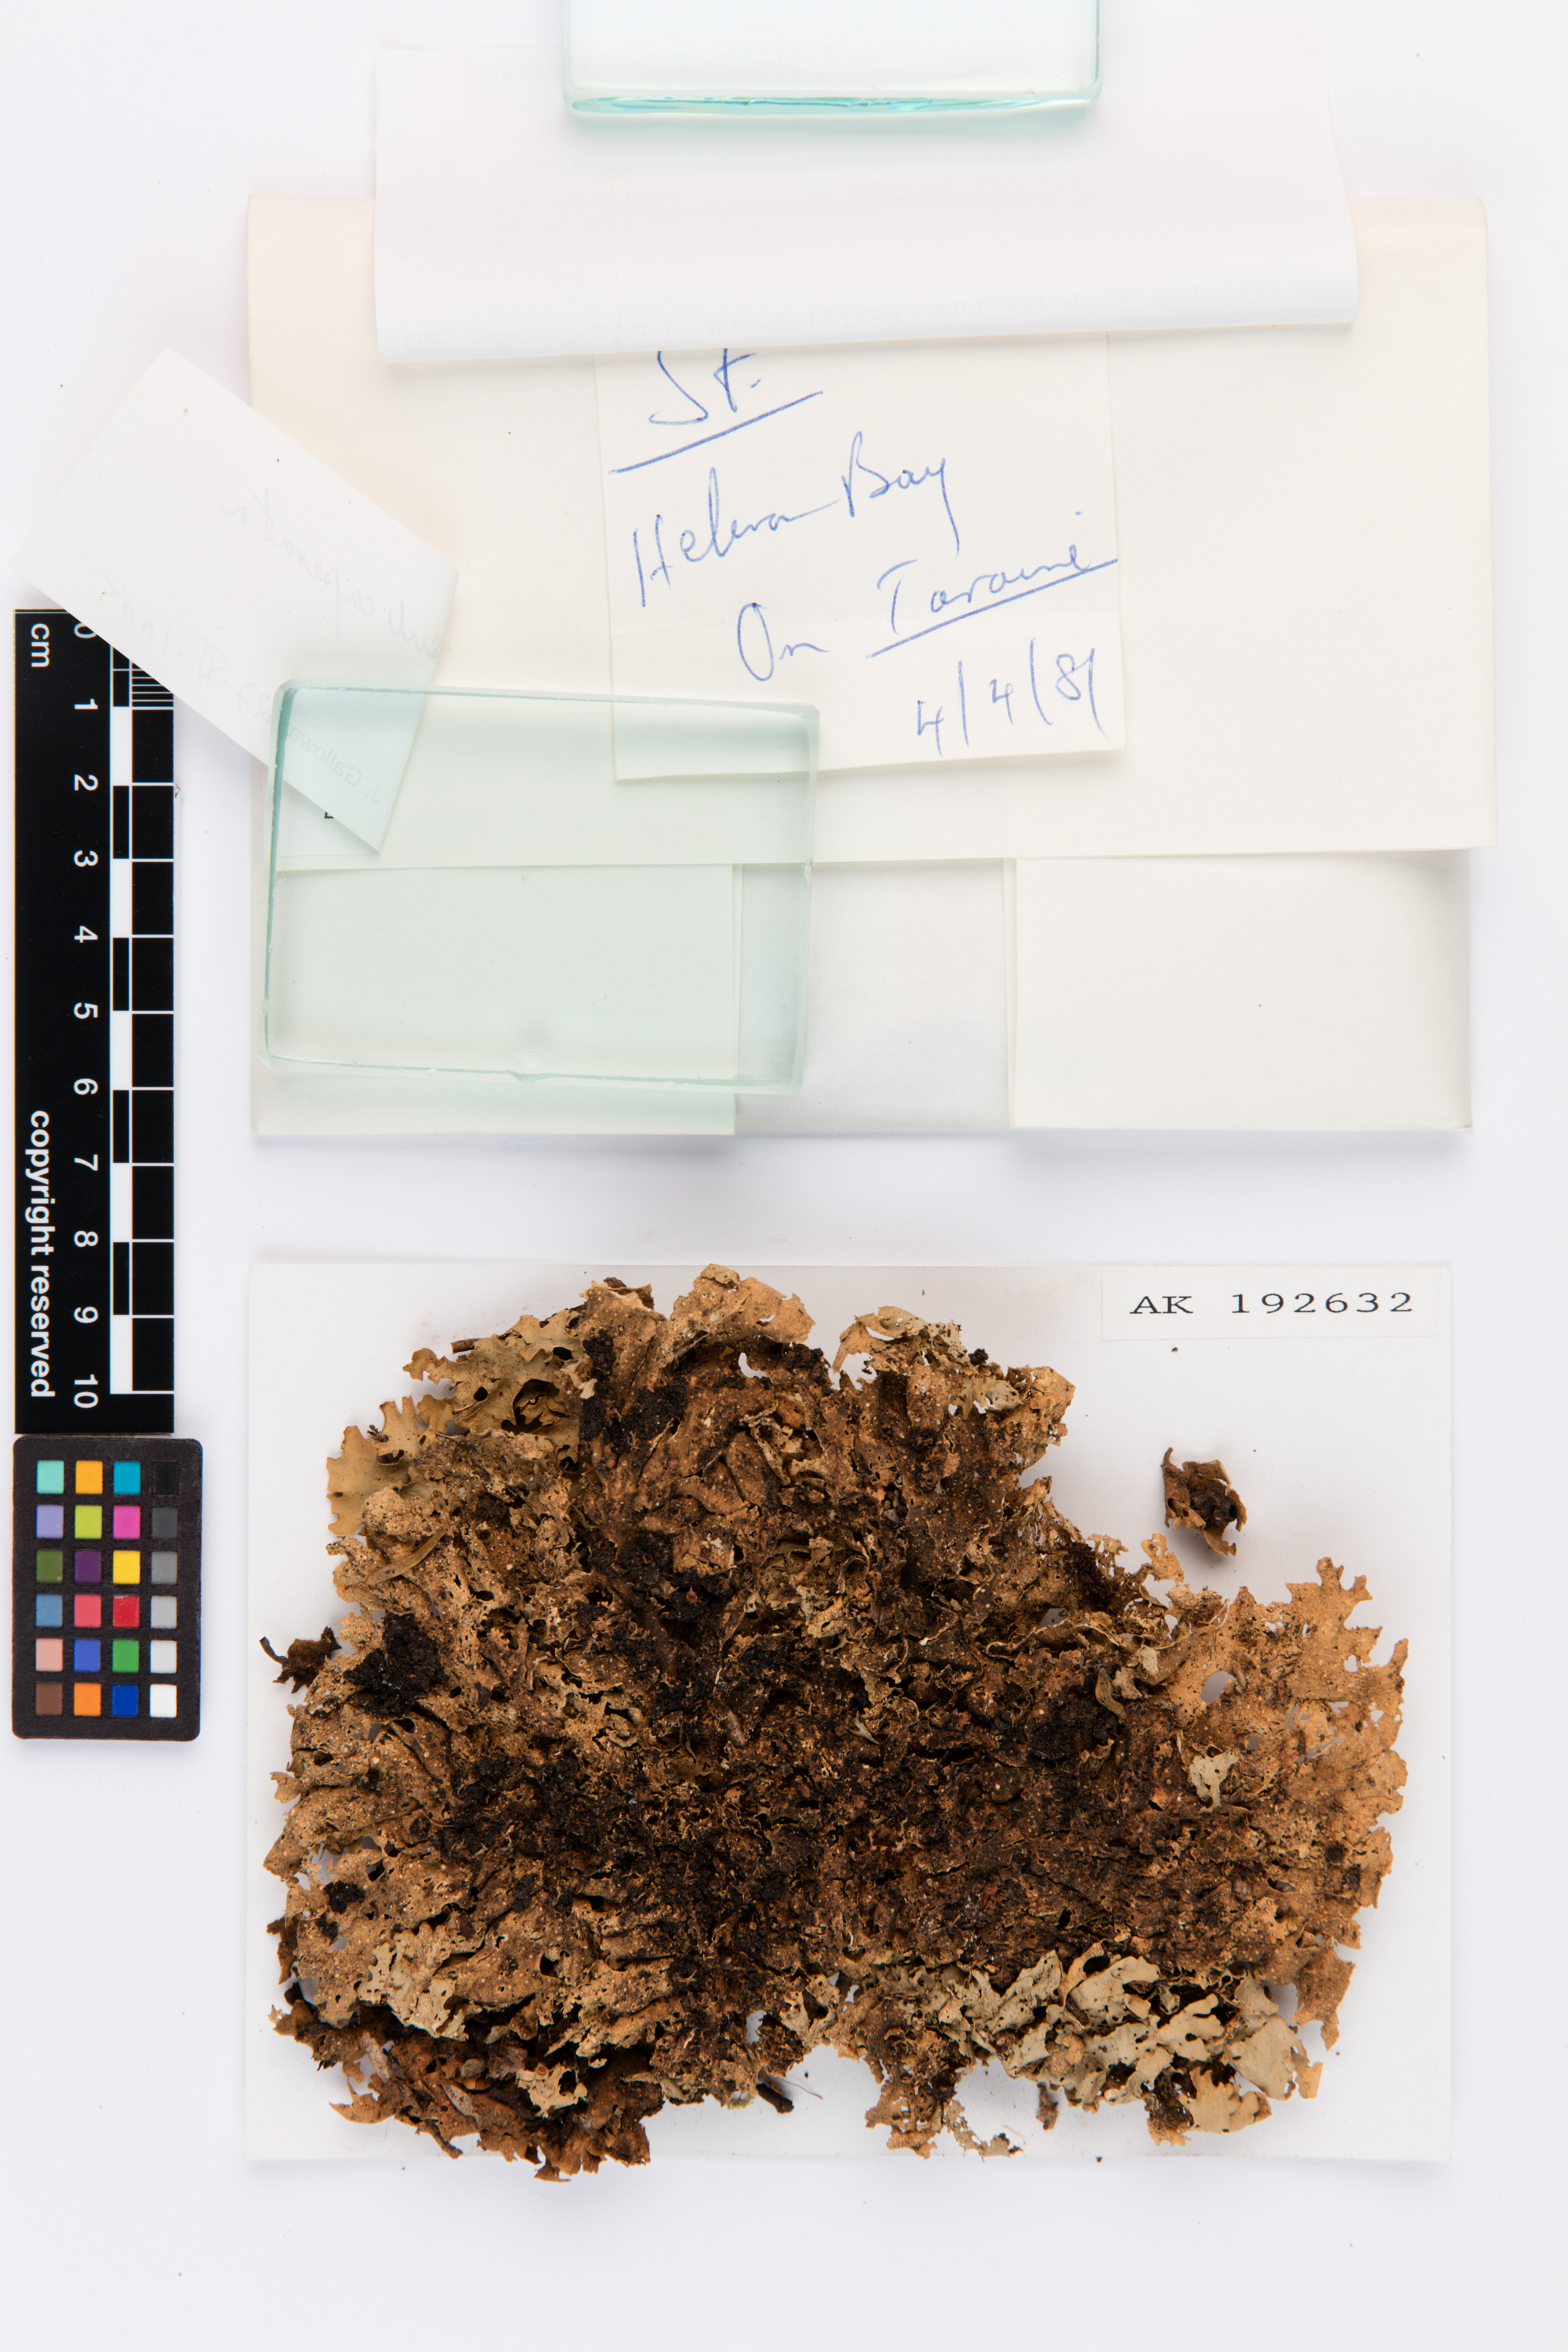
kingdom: Fungi
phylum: Ascomycota
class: Lecanoromycetes
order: Peltigerales
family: Lobariaceae
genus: Sticta
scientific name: Sticta subcaperata
